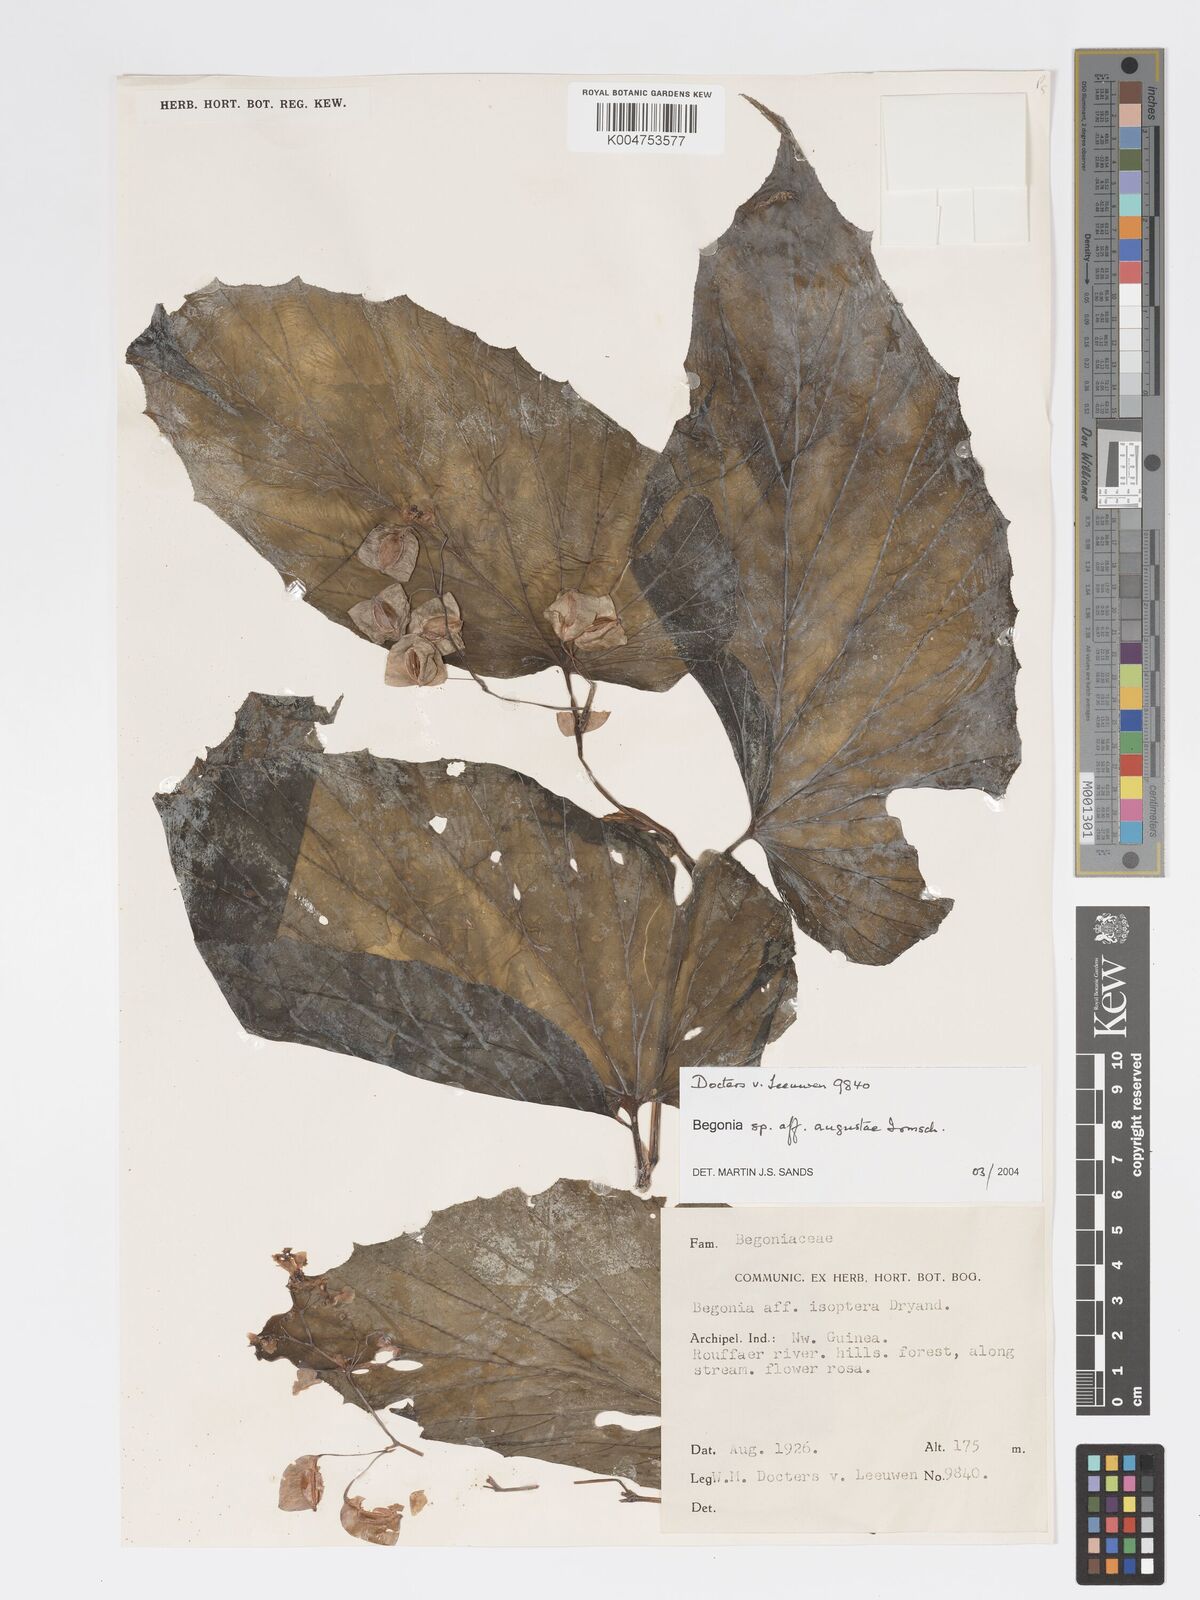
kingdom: Plantae
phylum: Tracheophyta
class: Magnoliopsida
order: Cucurbitales
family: Begoniaceae
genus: Begonia
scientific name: Begonia augustae
